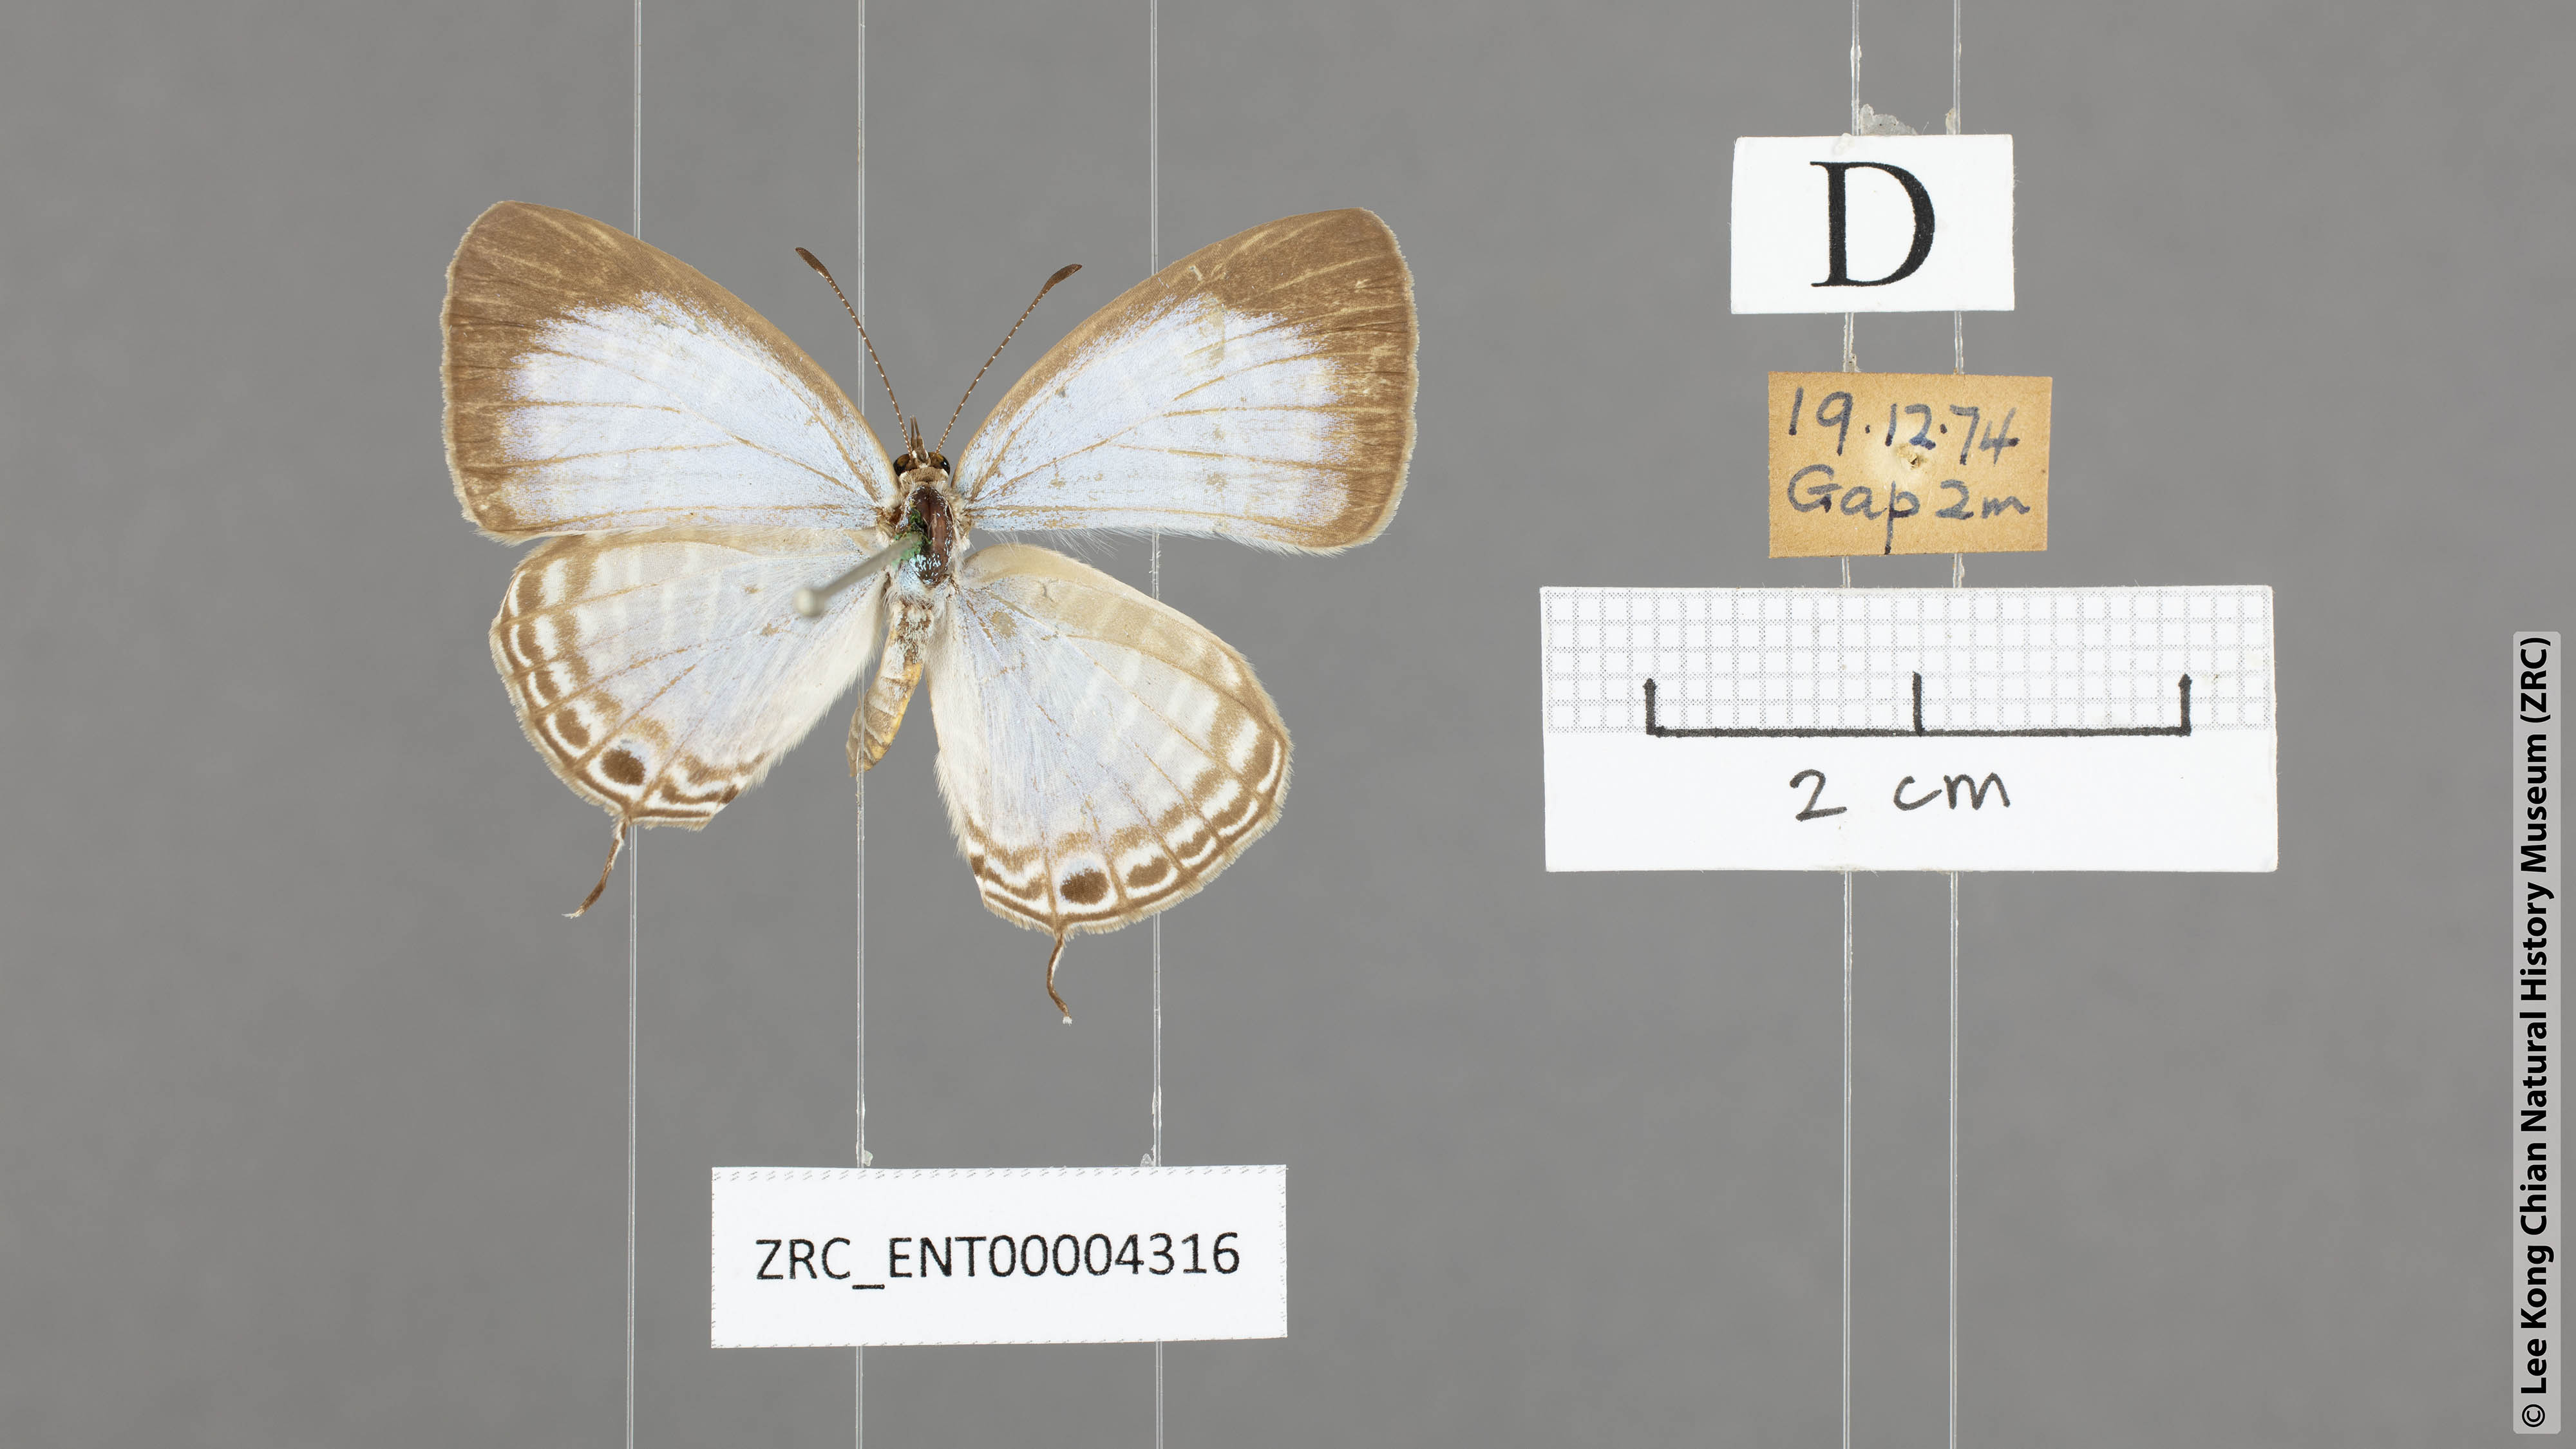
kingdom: Animalia
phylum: Arthropoda
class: Insecta
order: Lepidoptera
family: Lycaenidae
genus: Jamides
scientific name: Jamides alecto
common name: Metallic cerulean
